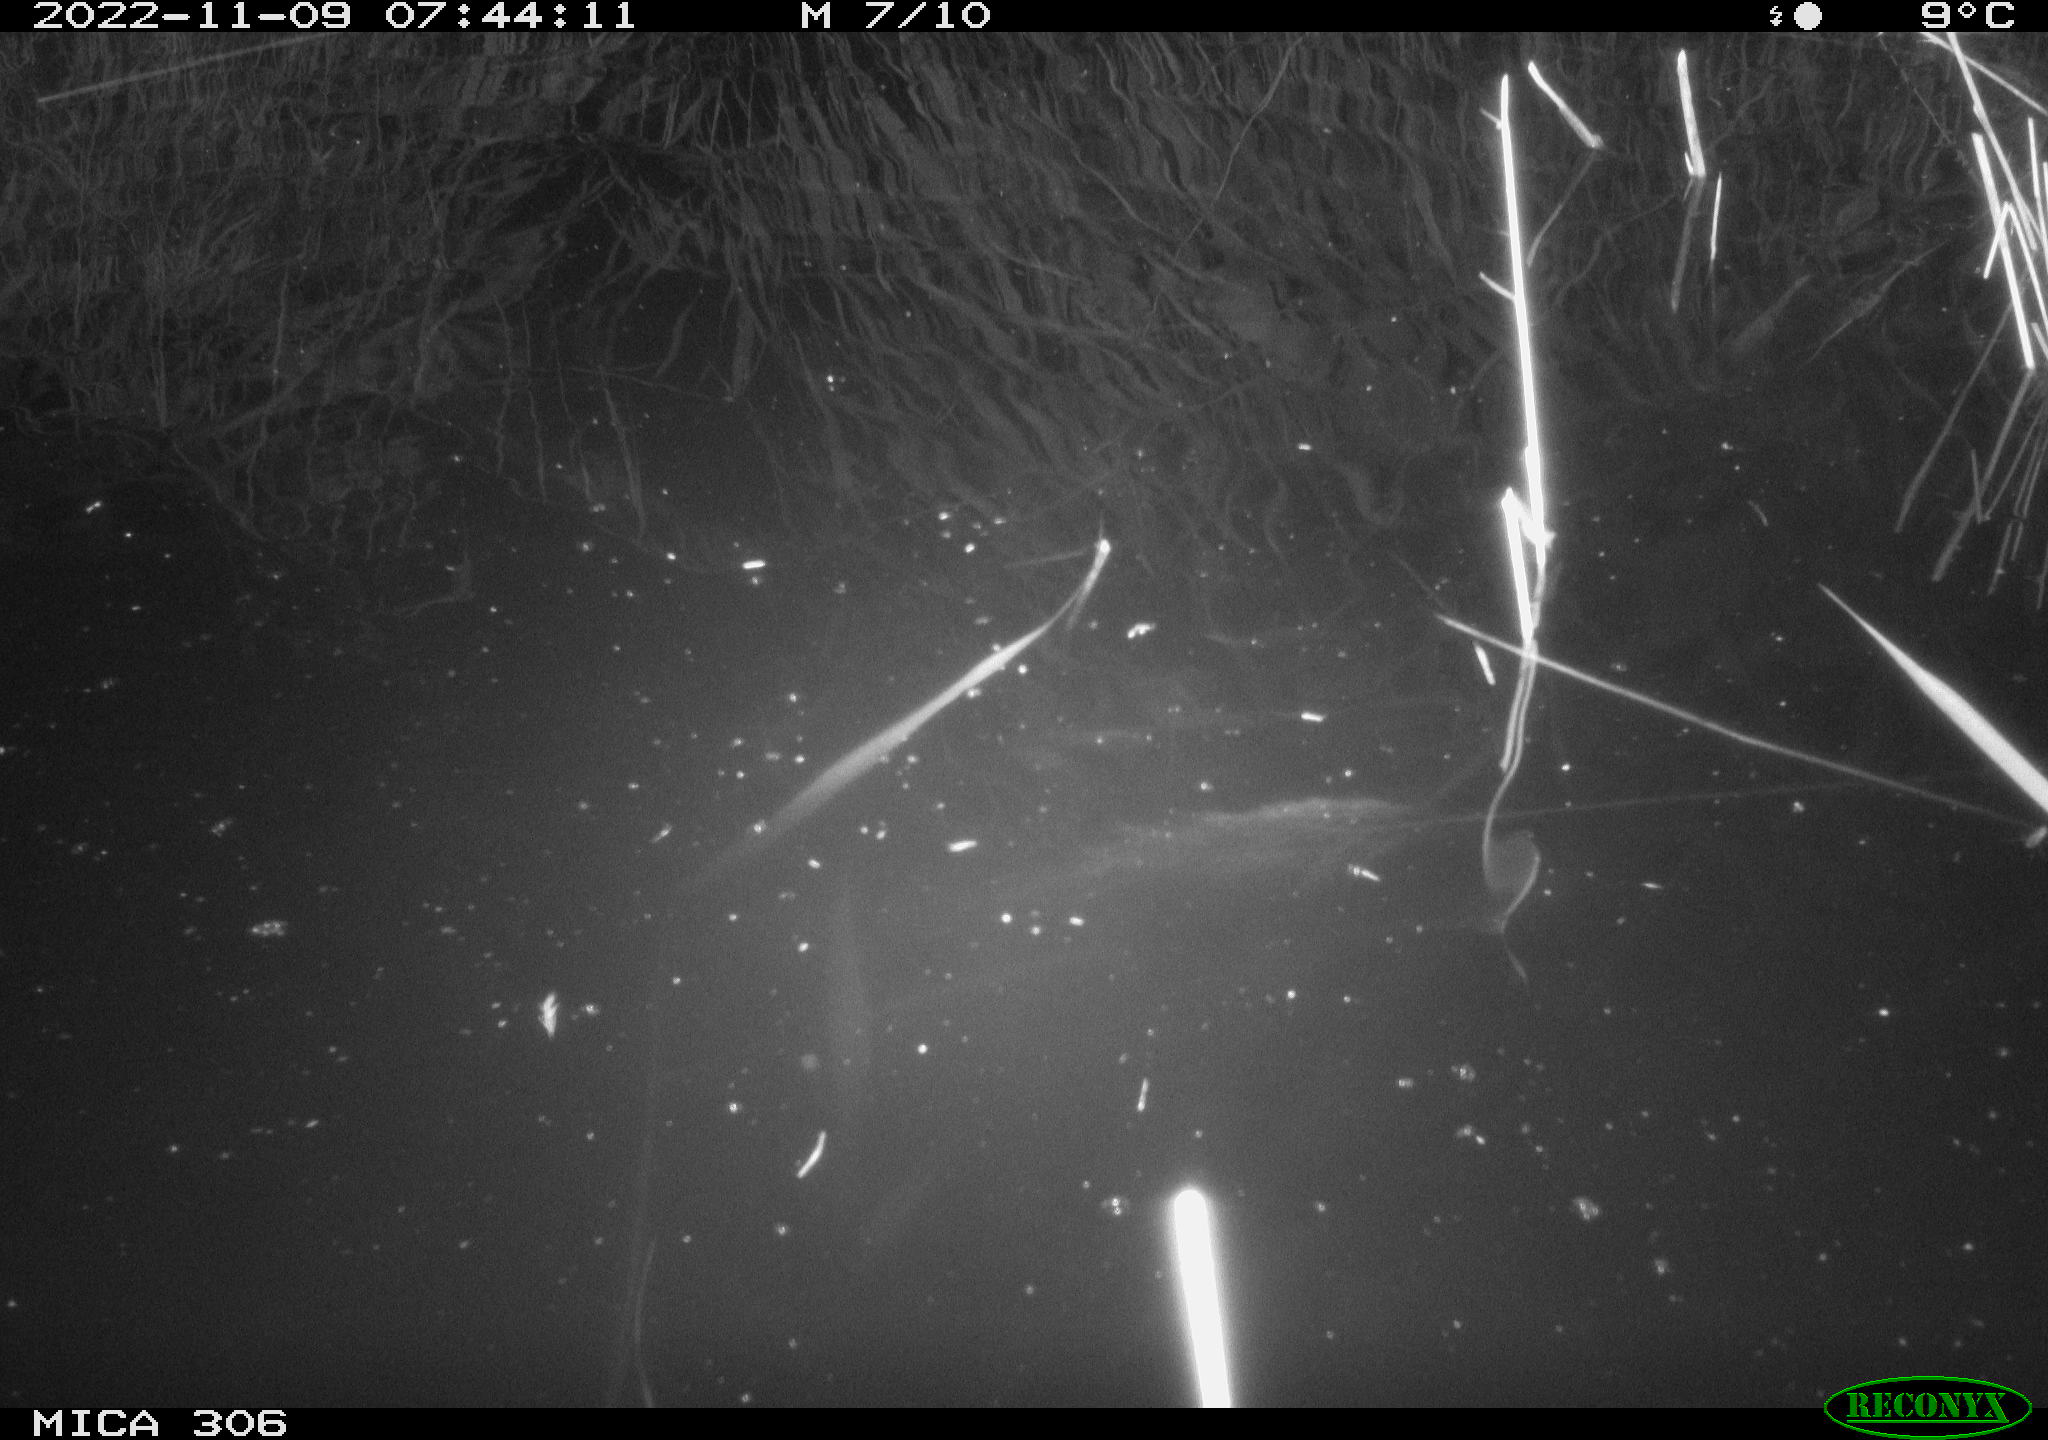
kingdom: Animalia
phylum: Chordata
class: Mammalia
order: Rodentia
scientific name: Rodentia
